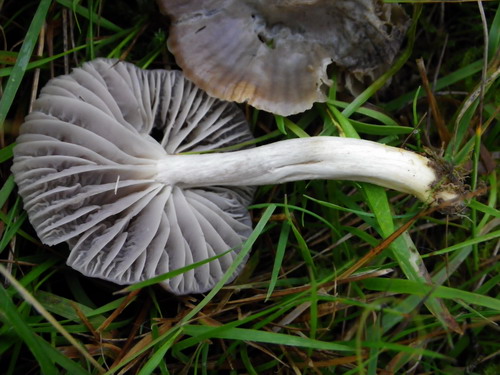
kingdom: Fungi
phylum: Basidiomycota
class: Agaricomycetes
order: Agaricales
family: Hygrophoraceae
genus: Cuphophyllus
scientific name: Cuphophyllus flavipes
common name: gulfodet vokshat
